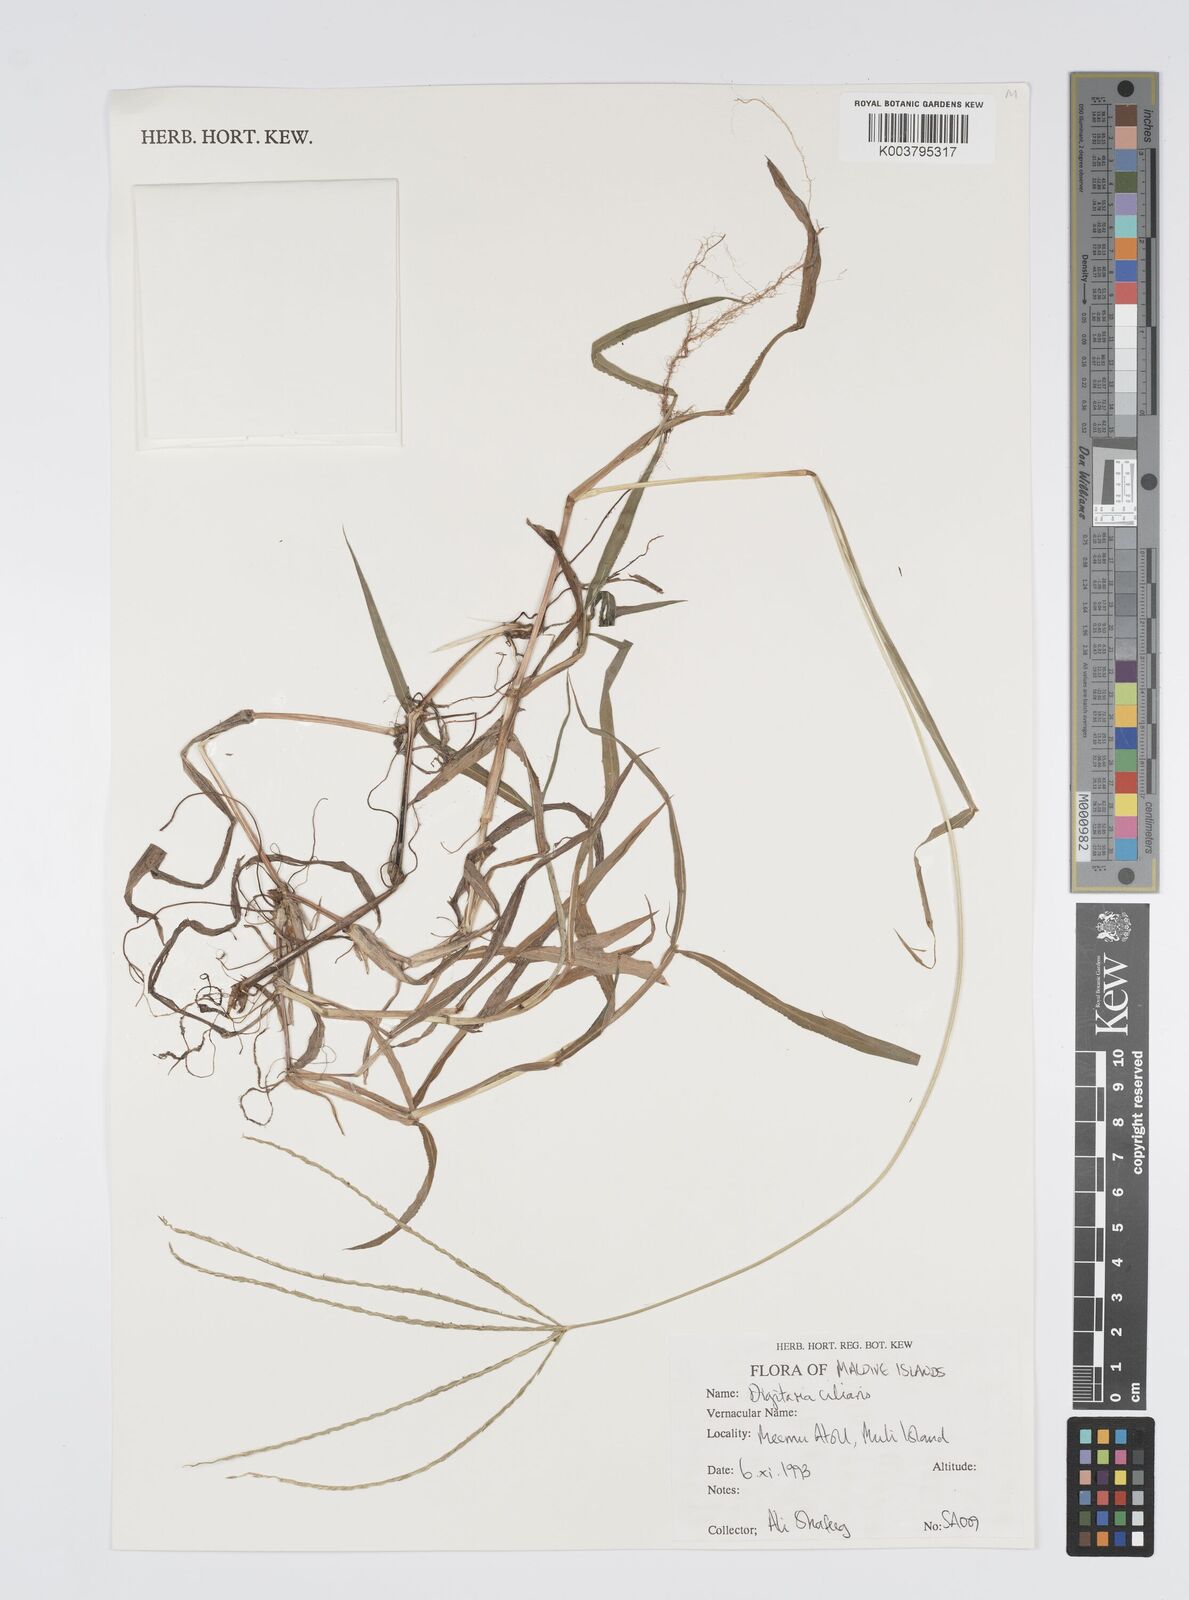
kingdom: Plantae
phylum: Tracheophyta
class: Liliopsida
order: Poales
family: Poaceae
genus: Digitaria
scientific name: Digitaria ciliaris
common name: Tropical finger-grass
